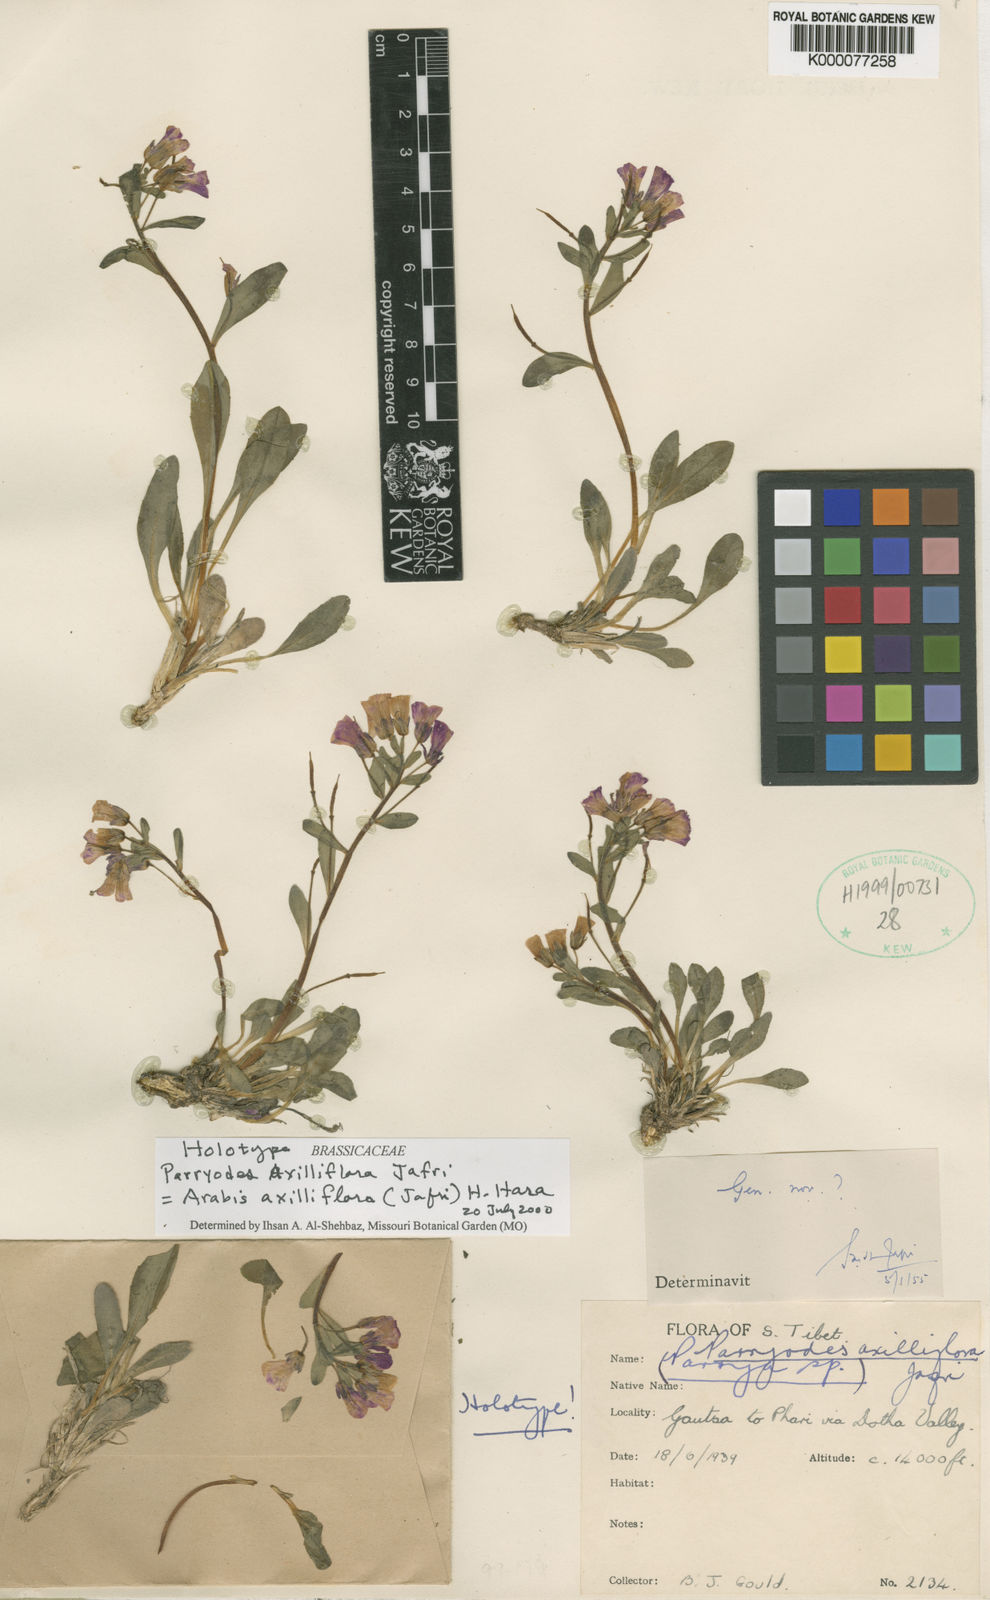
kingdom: Plantae
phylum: Tracheophyta
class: Magnoliopsida
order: Brassicales
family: Brassicaceae
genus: Parryodes
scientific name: Parryodes
